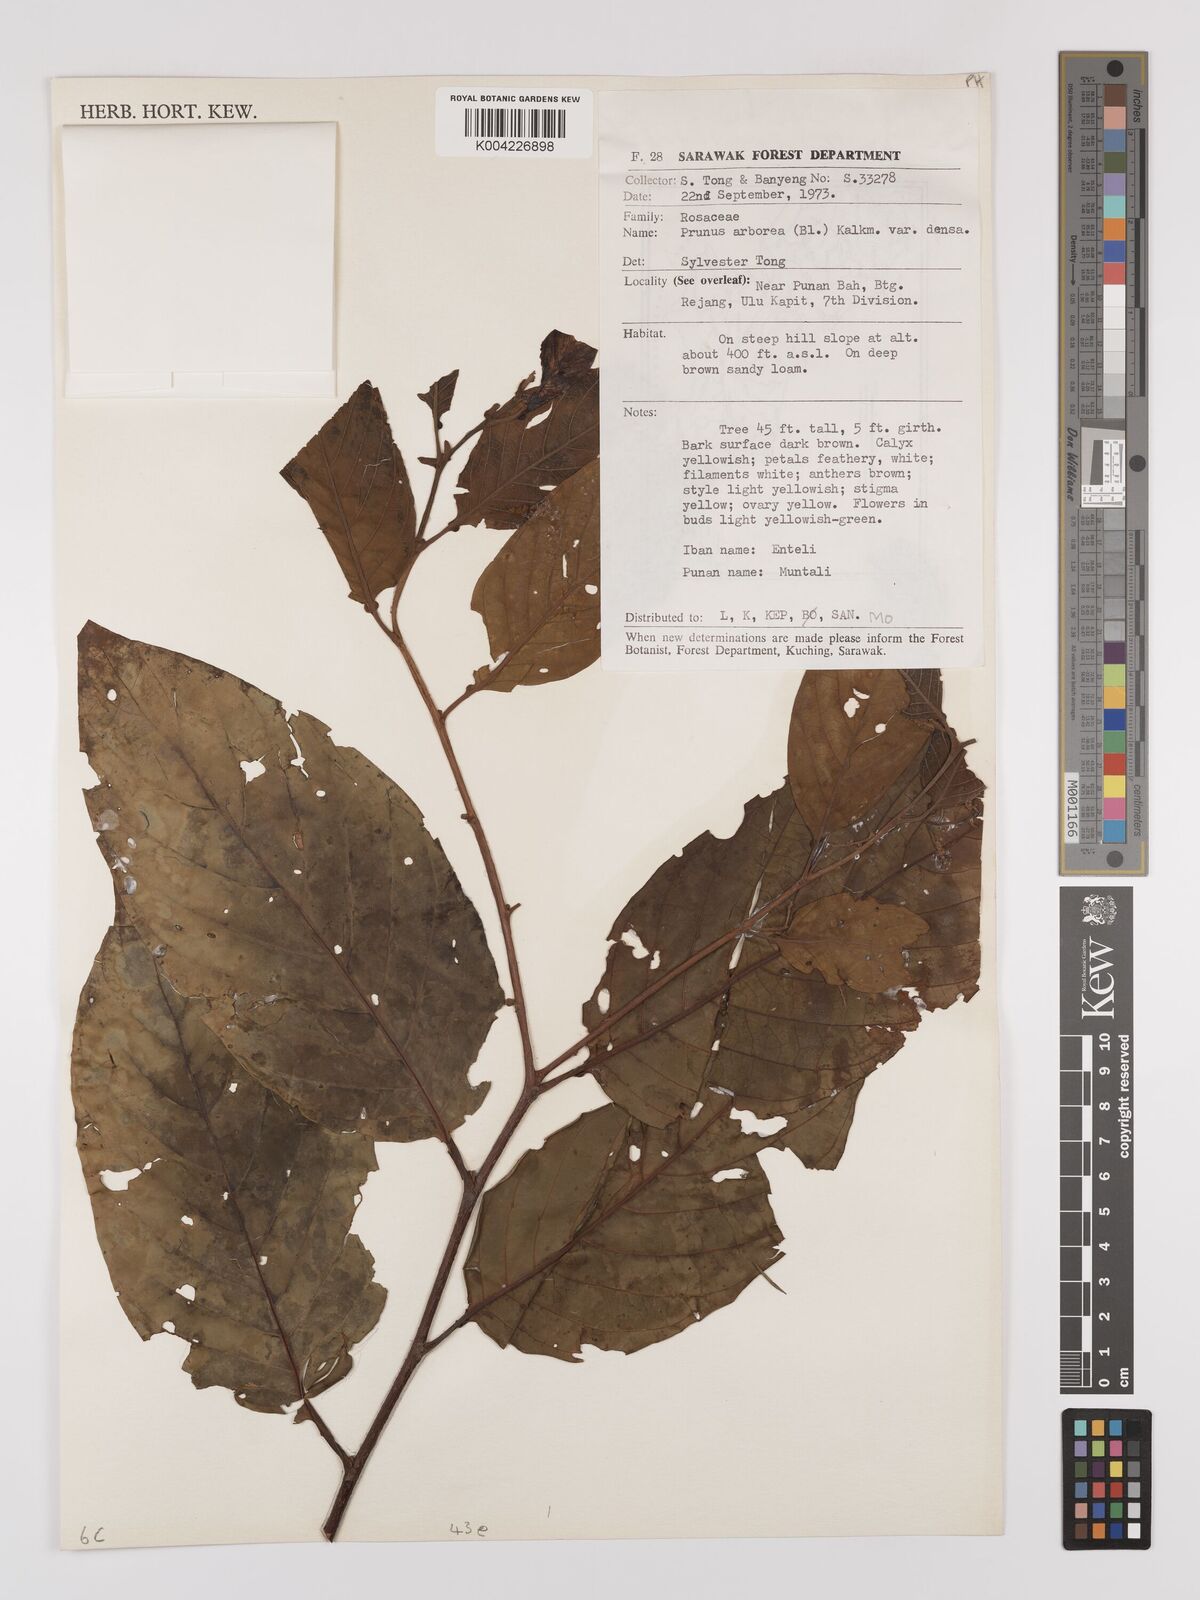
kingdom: Plantae
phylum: Tracheophyta
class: Magnoliopsida
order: Rosales
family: Rosaceae
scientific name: Rosaceae
